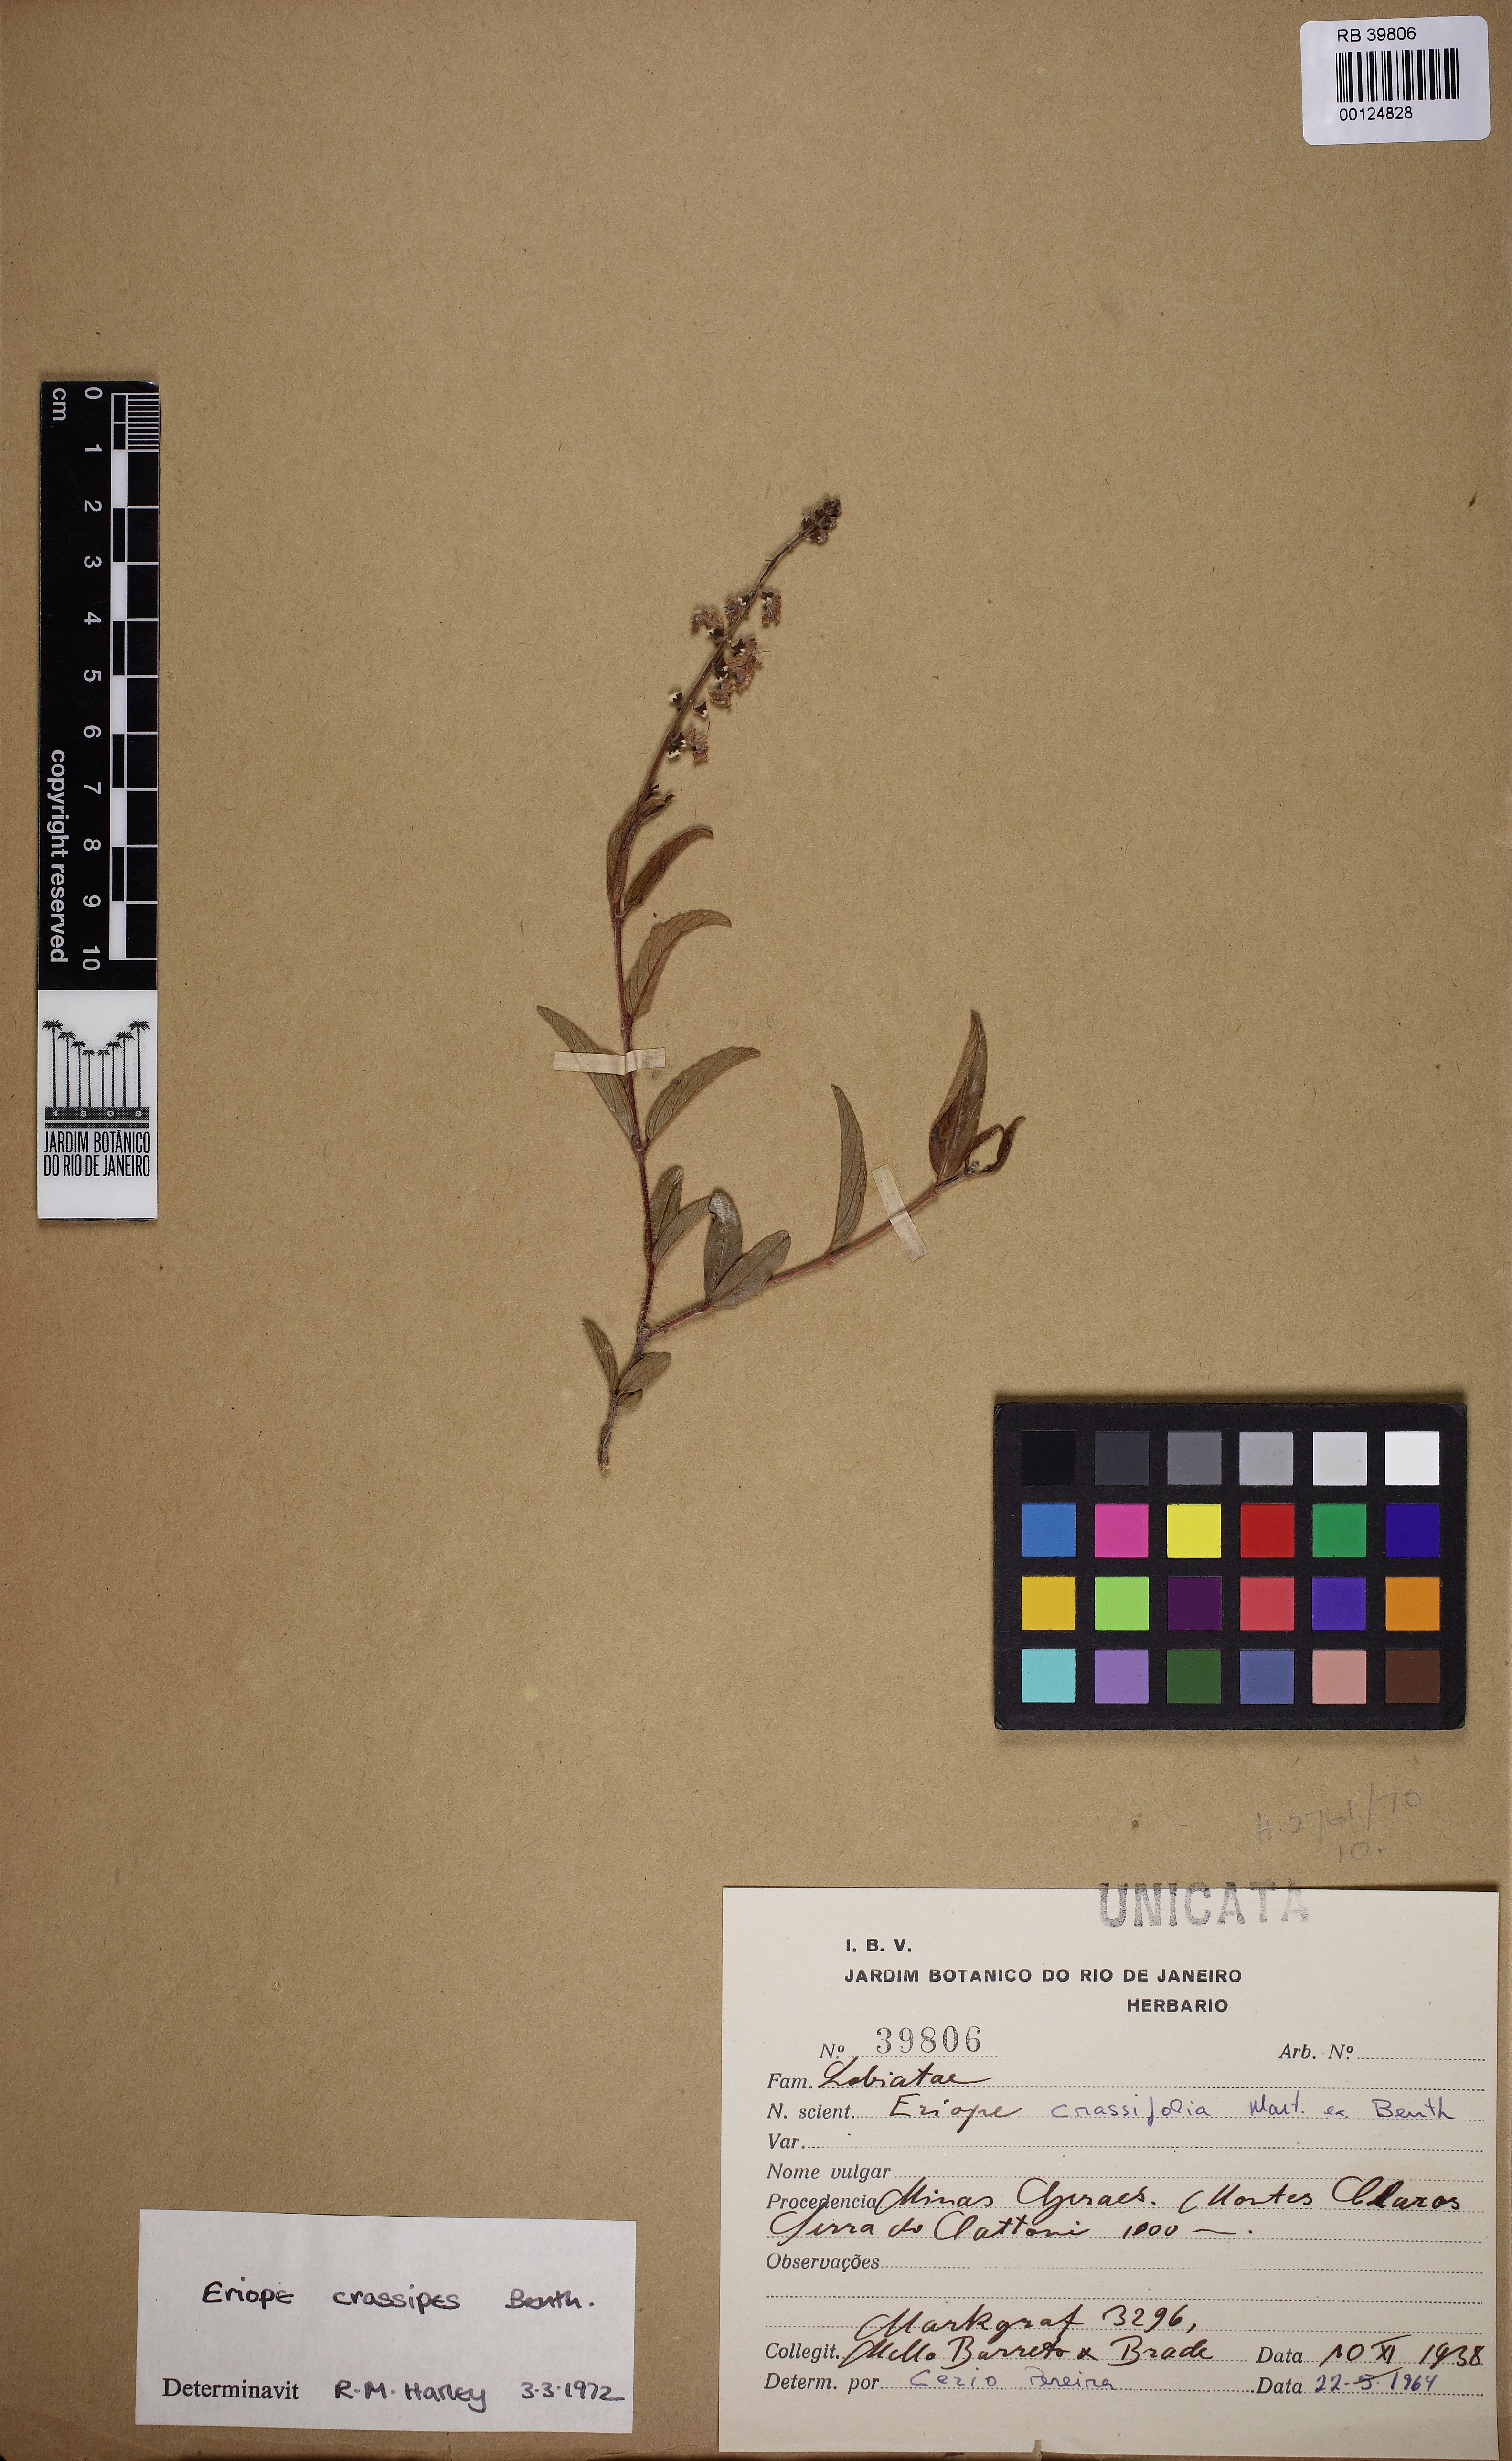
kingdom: Plantae
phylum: Tracheophyta
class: Magnoliopsida
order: Lamiales
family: Lamiaceae
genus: Eriope
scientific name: Eriope crassipes
